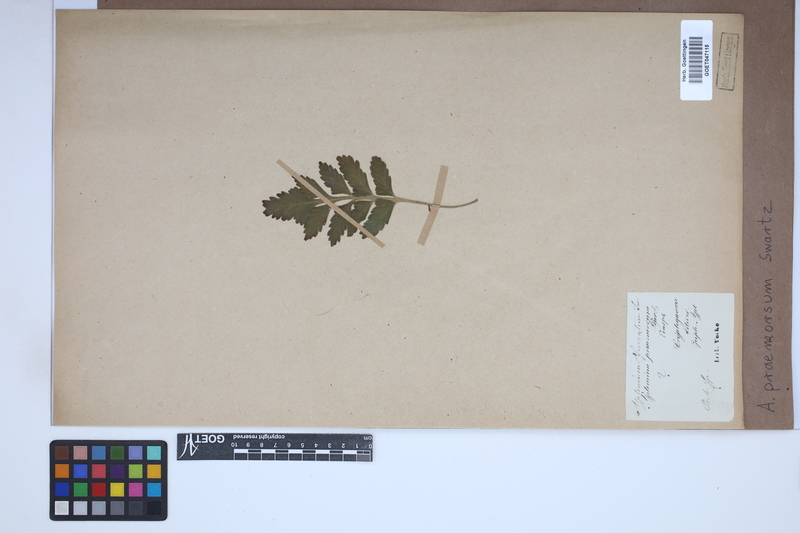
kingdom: Plantae
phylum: Tracheophyta
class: Polypodiopsida
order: Polypodiales
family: Aspleniaceae
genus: Asplenium
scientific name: Asplenium praemorsum
